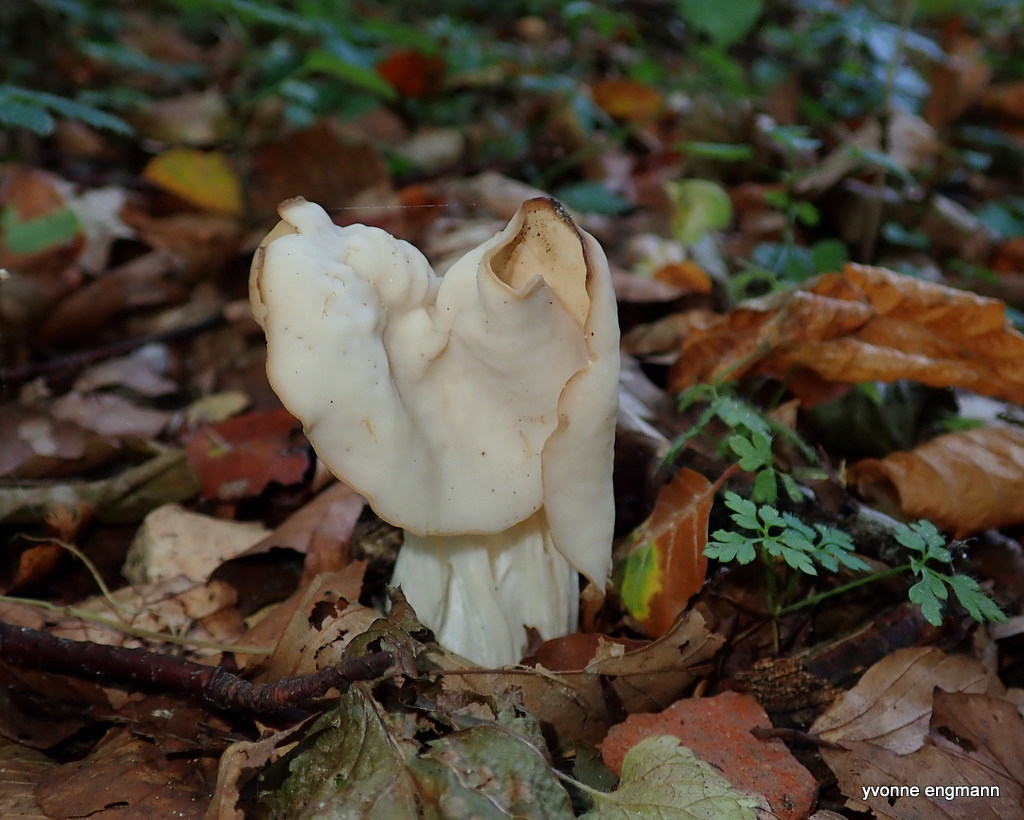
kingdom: Fungi
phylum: Ascomycota
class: Pezizomycetes
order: Pezizales
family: Helvellaceae
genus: Helvella
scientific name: Helvella crispa
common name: kruset foldhat
